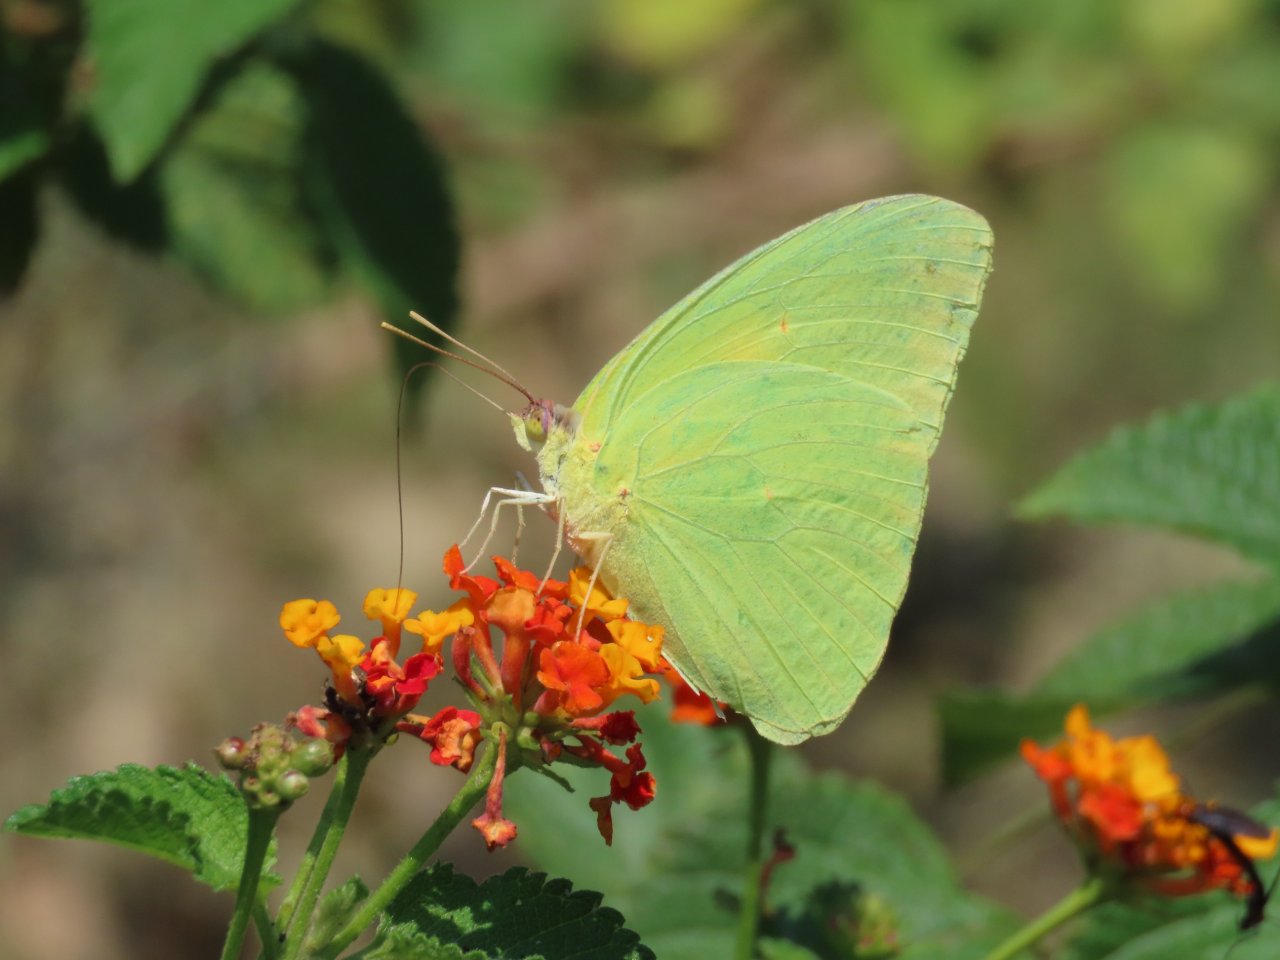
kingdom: Animalia
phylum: Arthropoda
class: Insecta
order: Lepidoptera
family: Pieridae
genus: Phoebis
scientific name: Phoebis sennae
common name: Cloudless Sulphur
